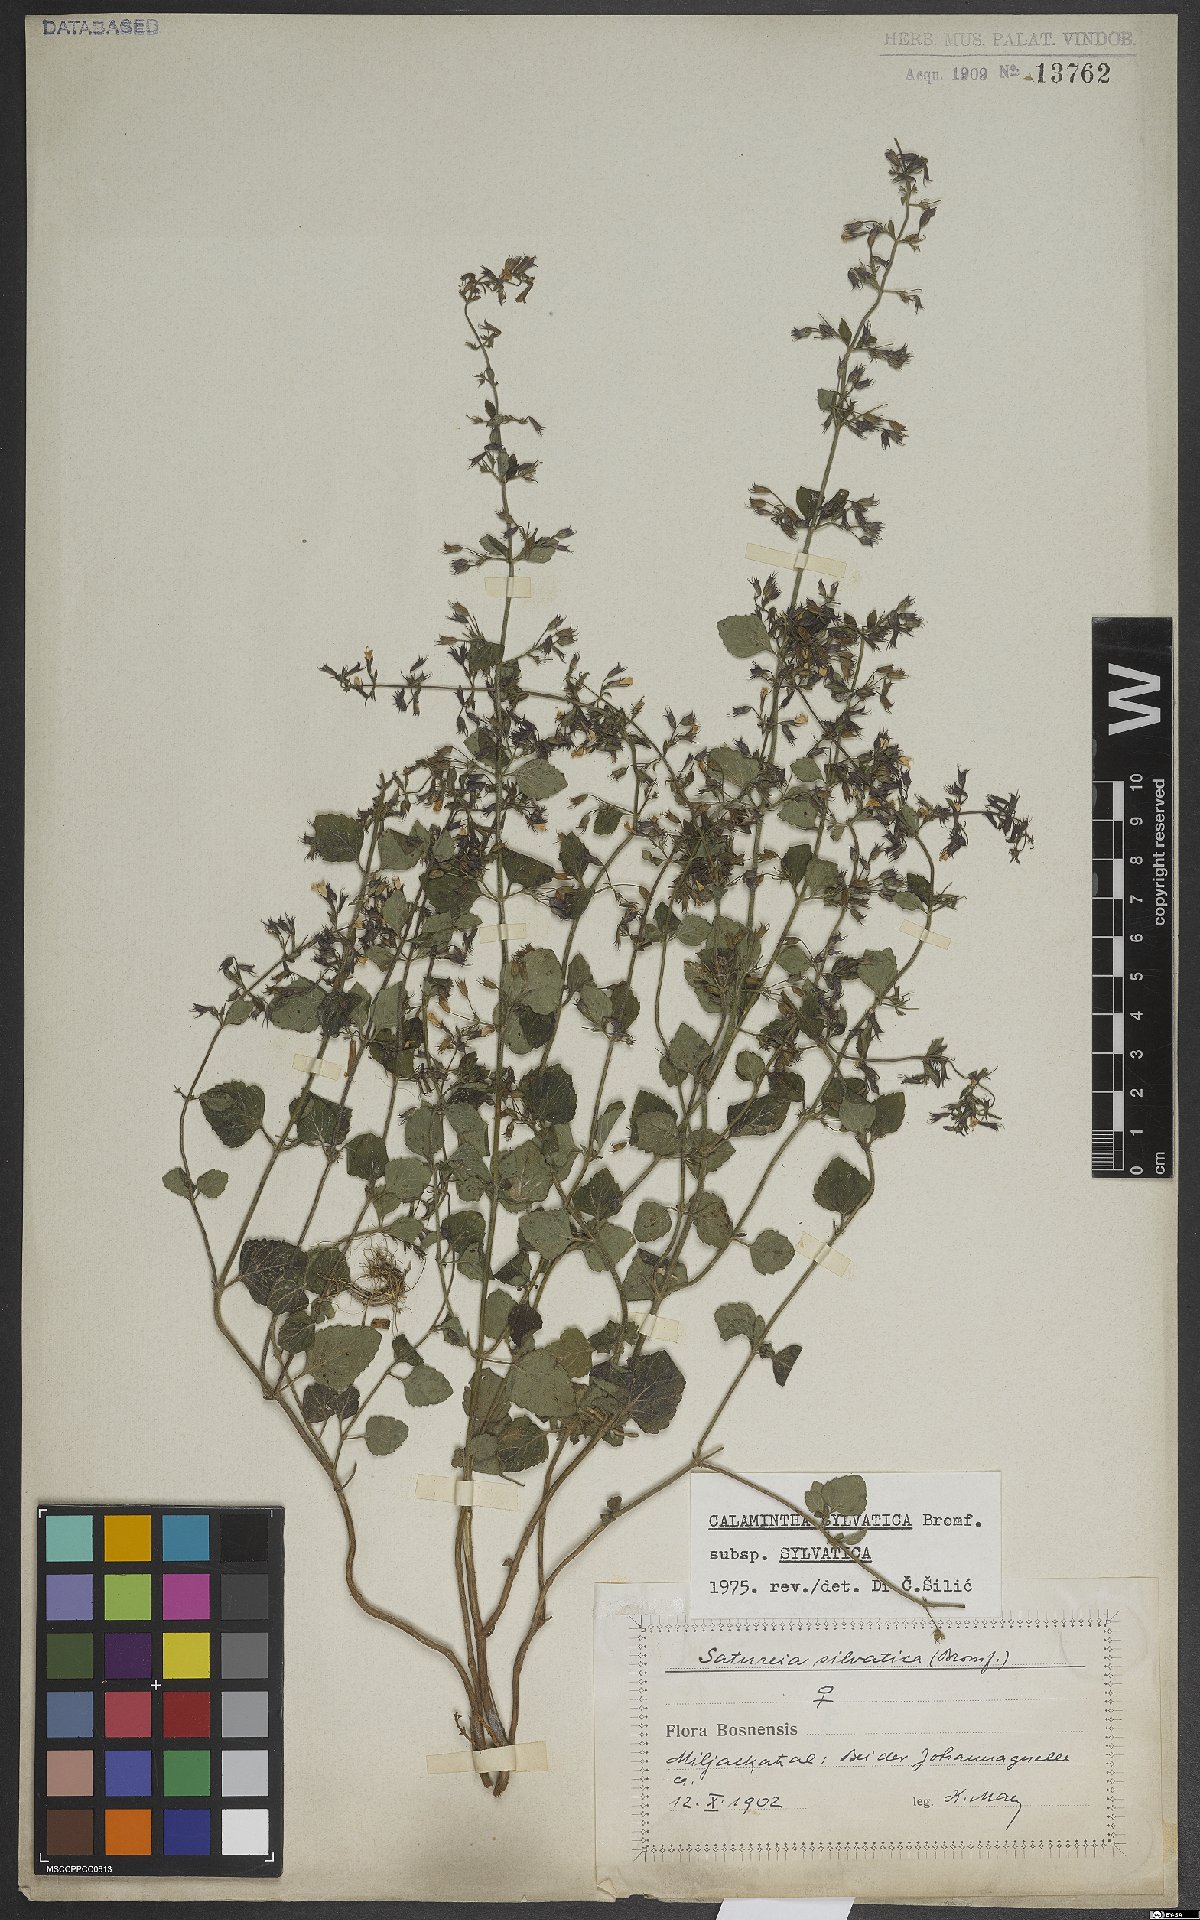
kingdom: Plantae
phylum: Tracheophyta
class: Magnoliopsida
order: Lamiales
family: Lamiaceae
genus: Clinopodium
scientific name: Clinopodium menthifolium
